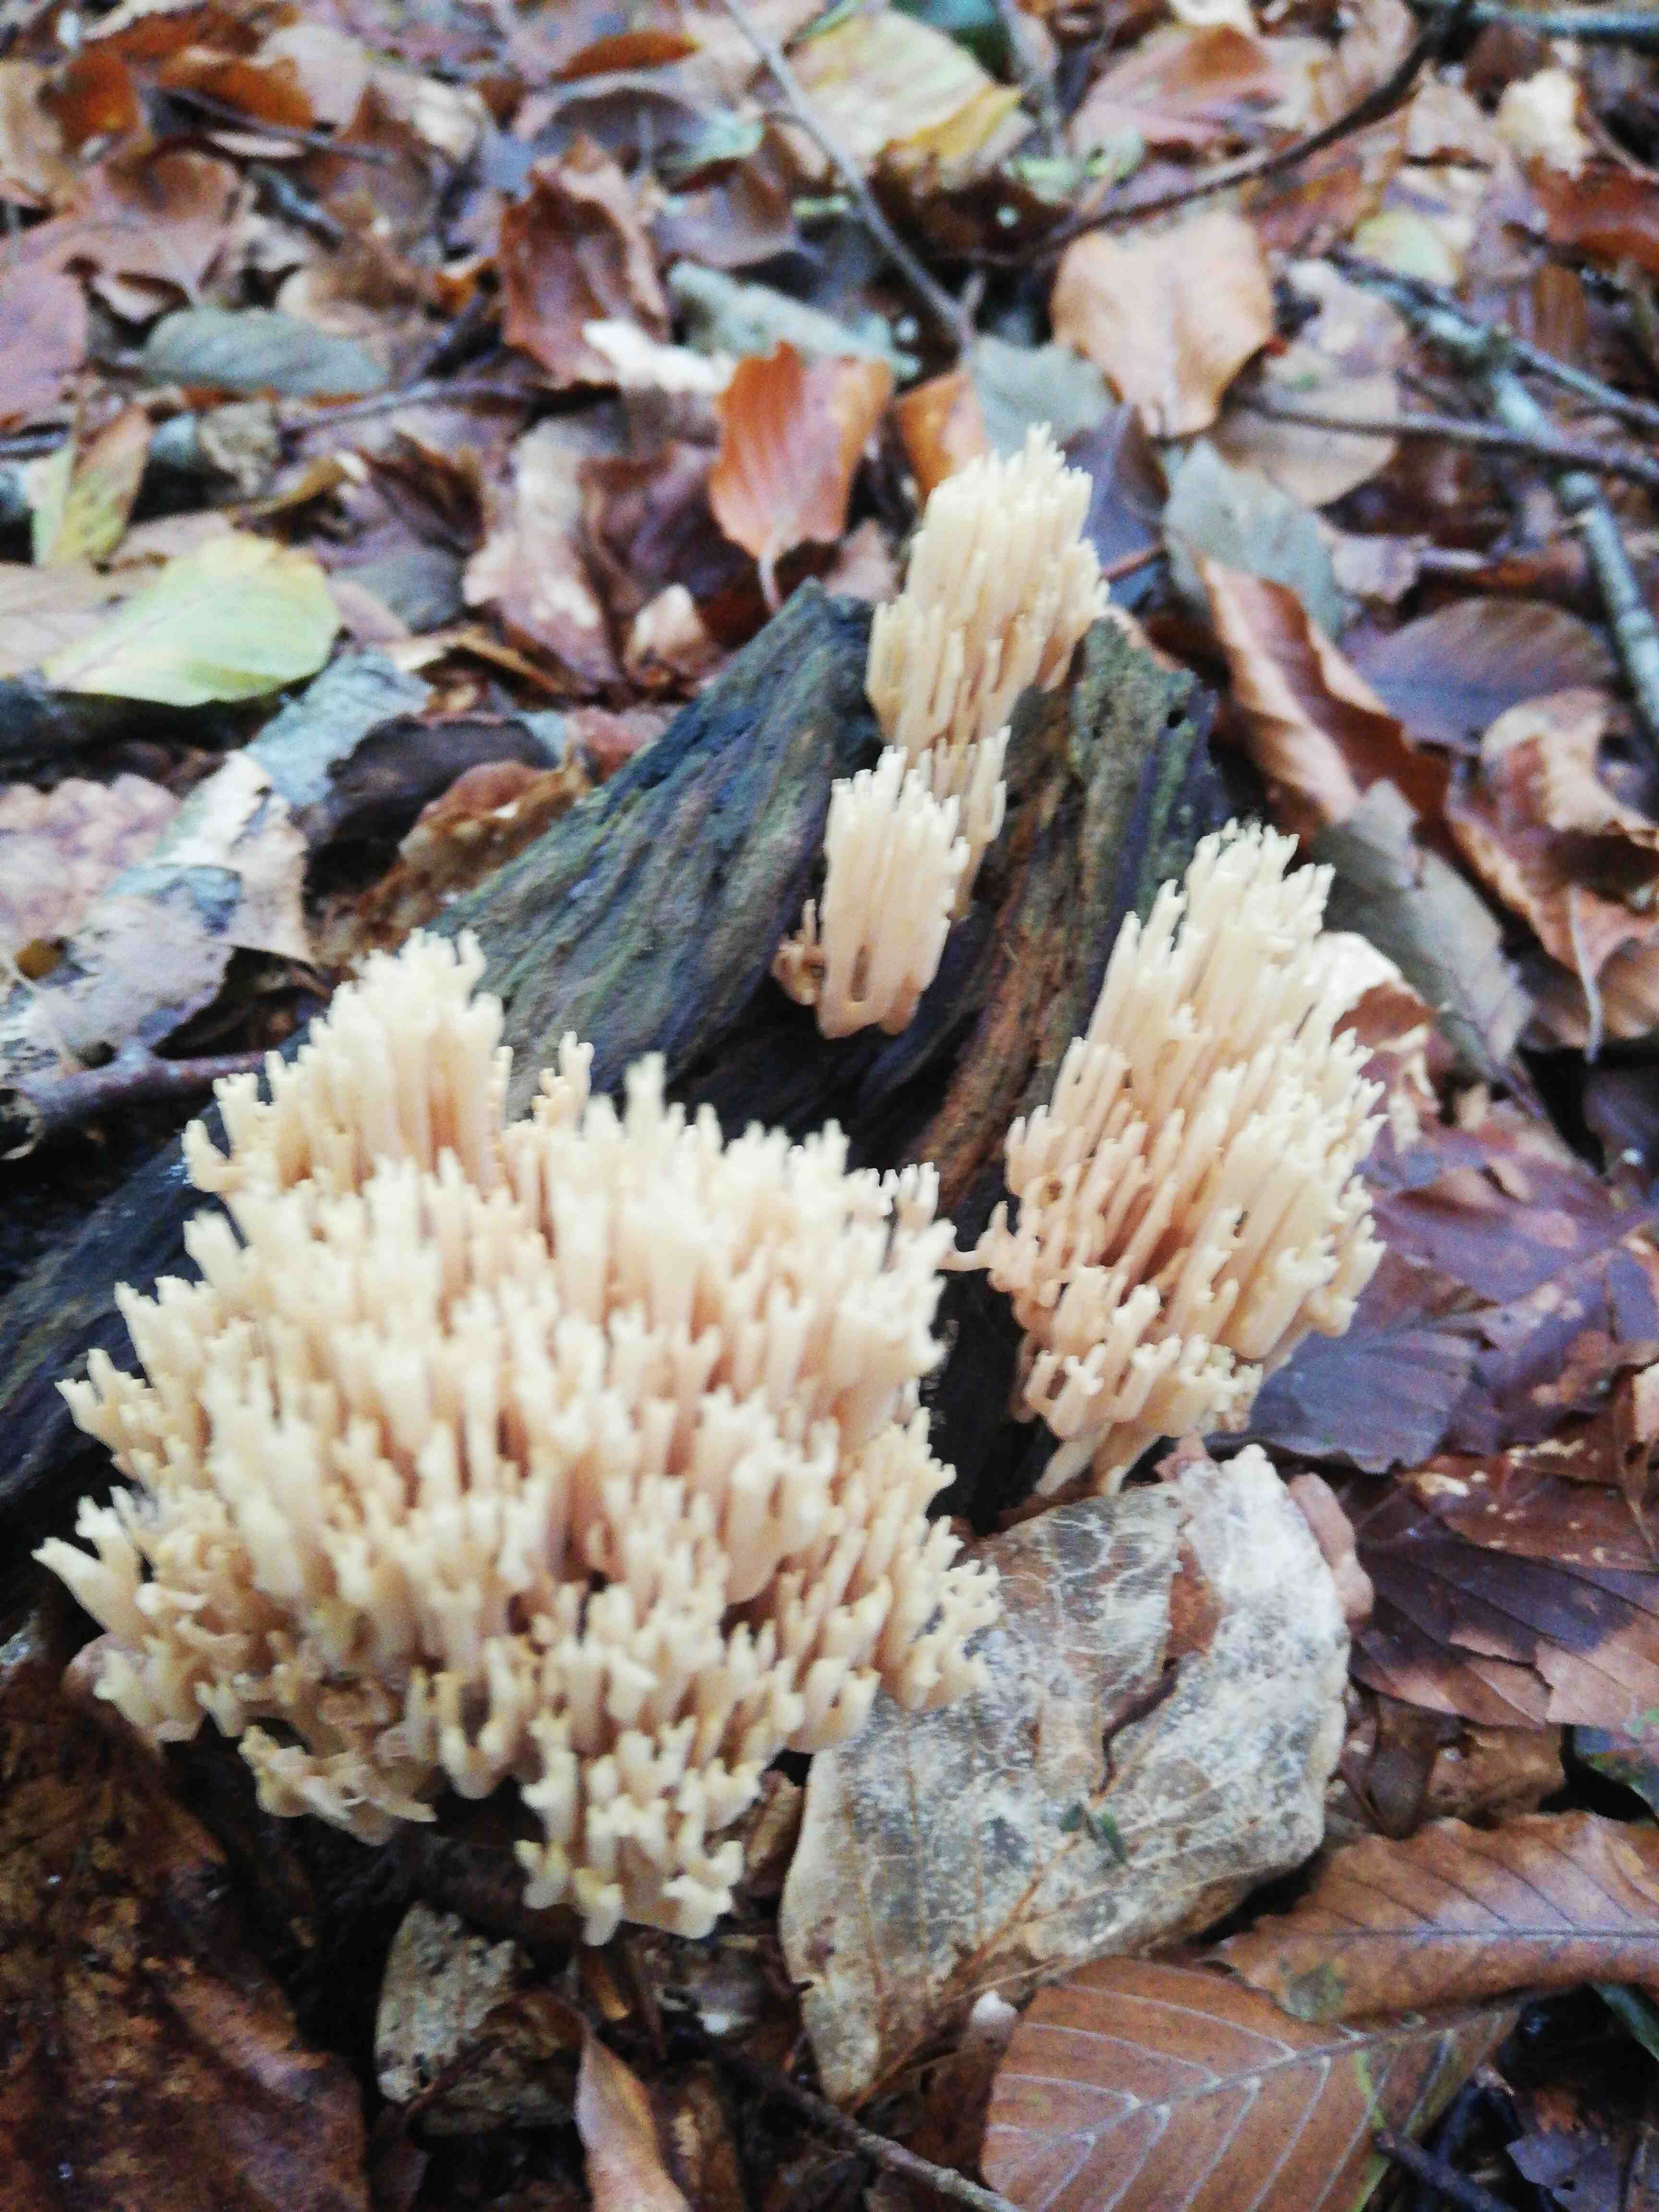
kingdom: Fungi
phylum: Basidiomycota
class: Agaricomycetes
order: Gomphales
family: Gomphaceae
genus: Ramaria
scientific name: Ramaria stricta
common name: rank koralsvamp
